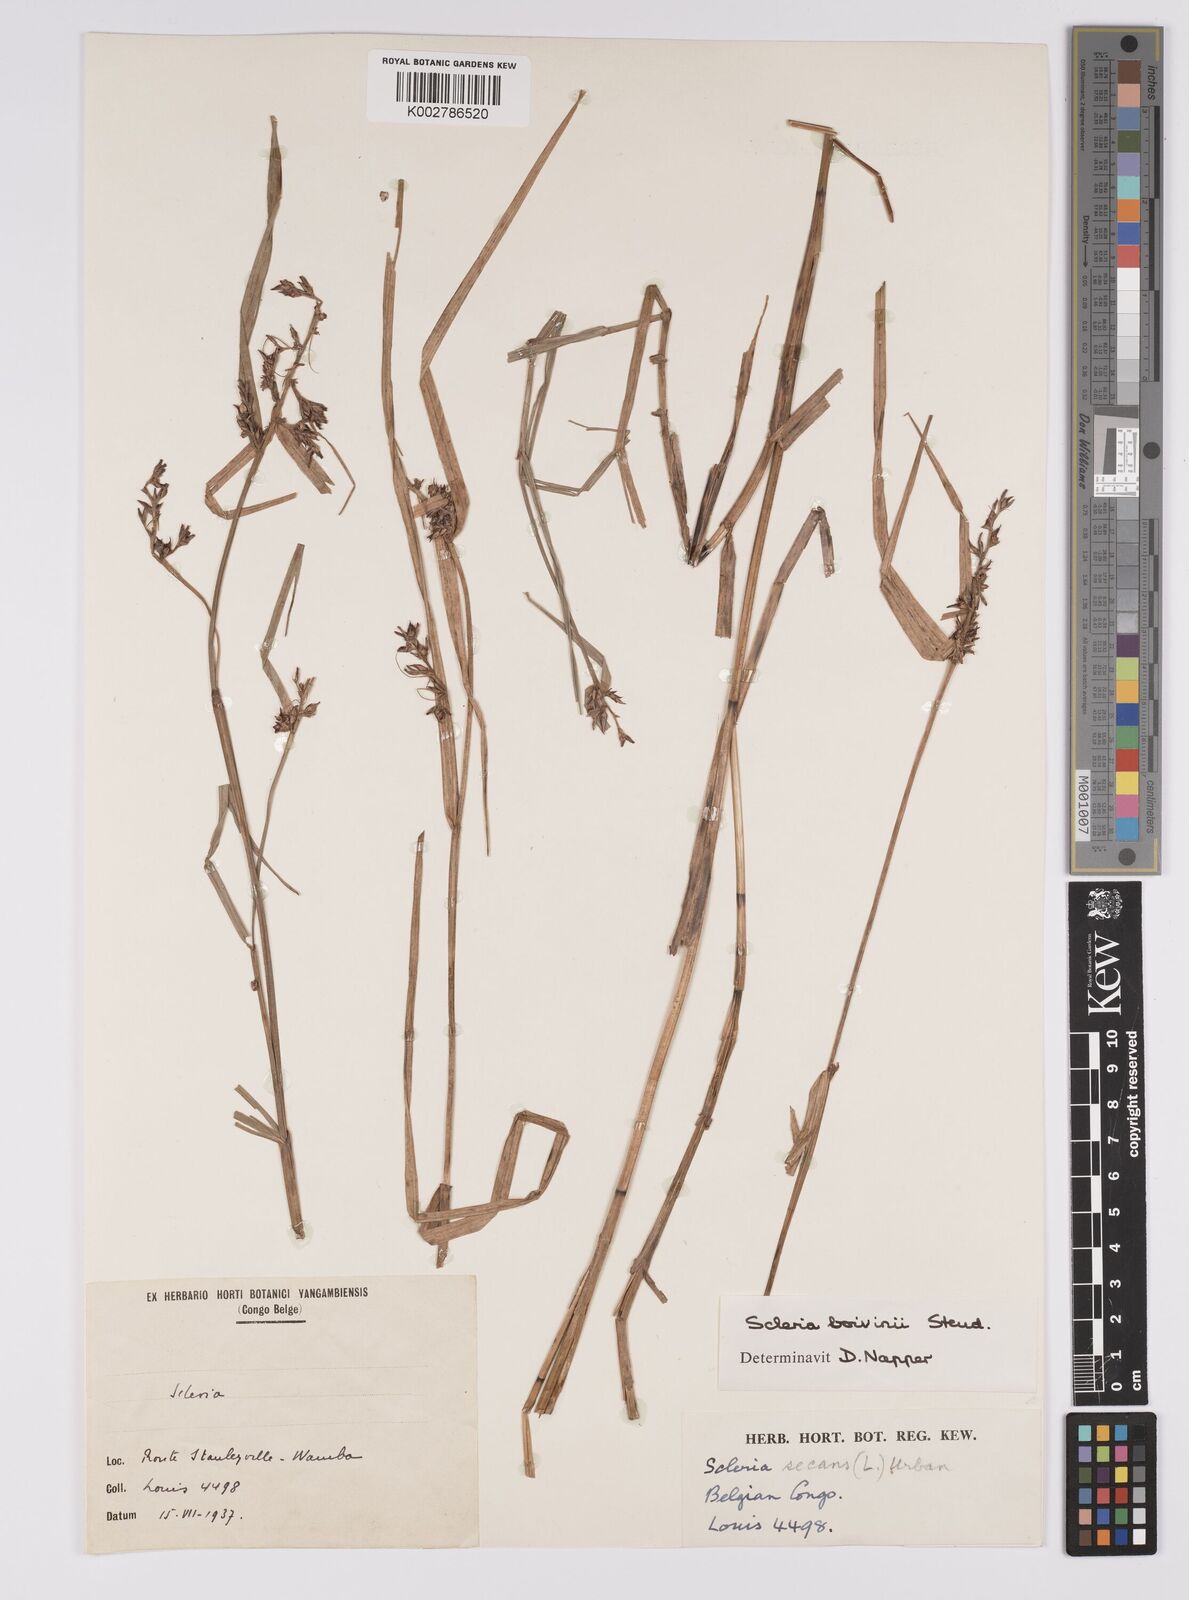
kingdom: Plantae
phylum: Tracheophyta
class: Liliopsida
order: Poales
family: Cyperaceae
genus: Scleria
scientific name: Scleria boivinii
